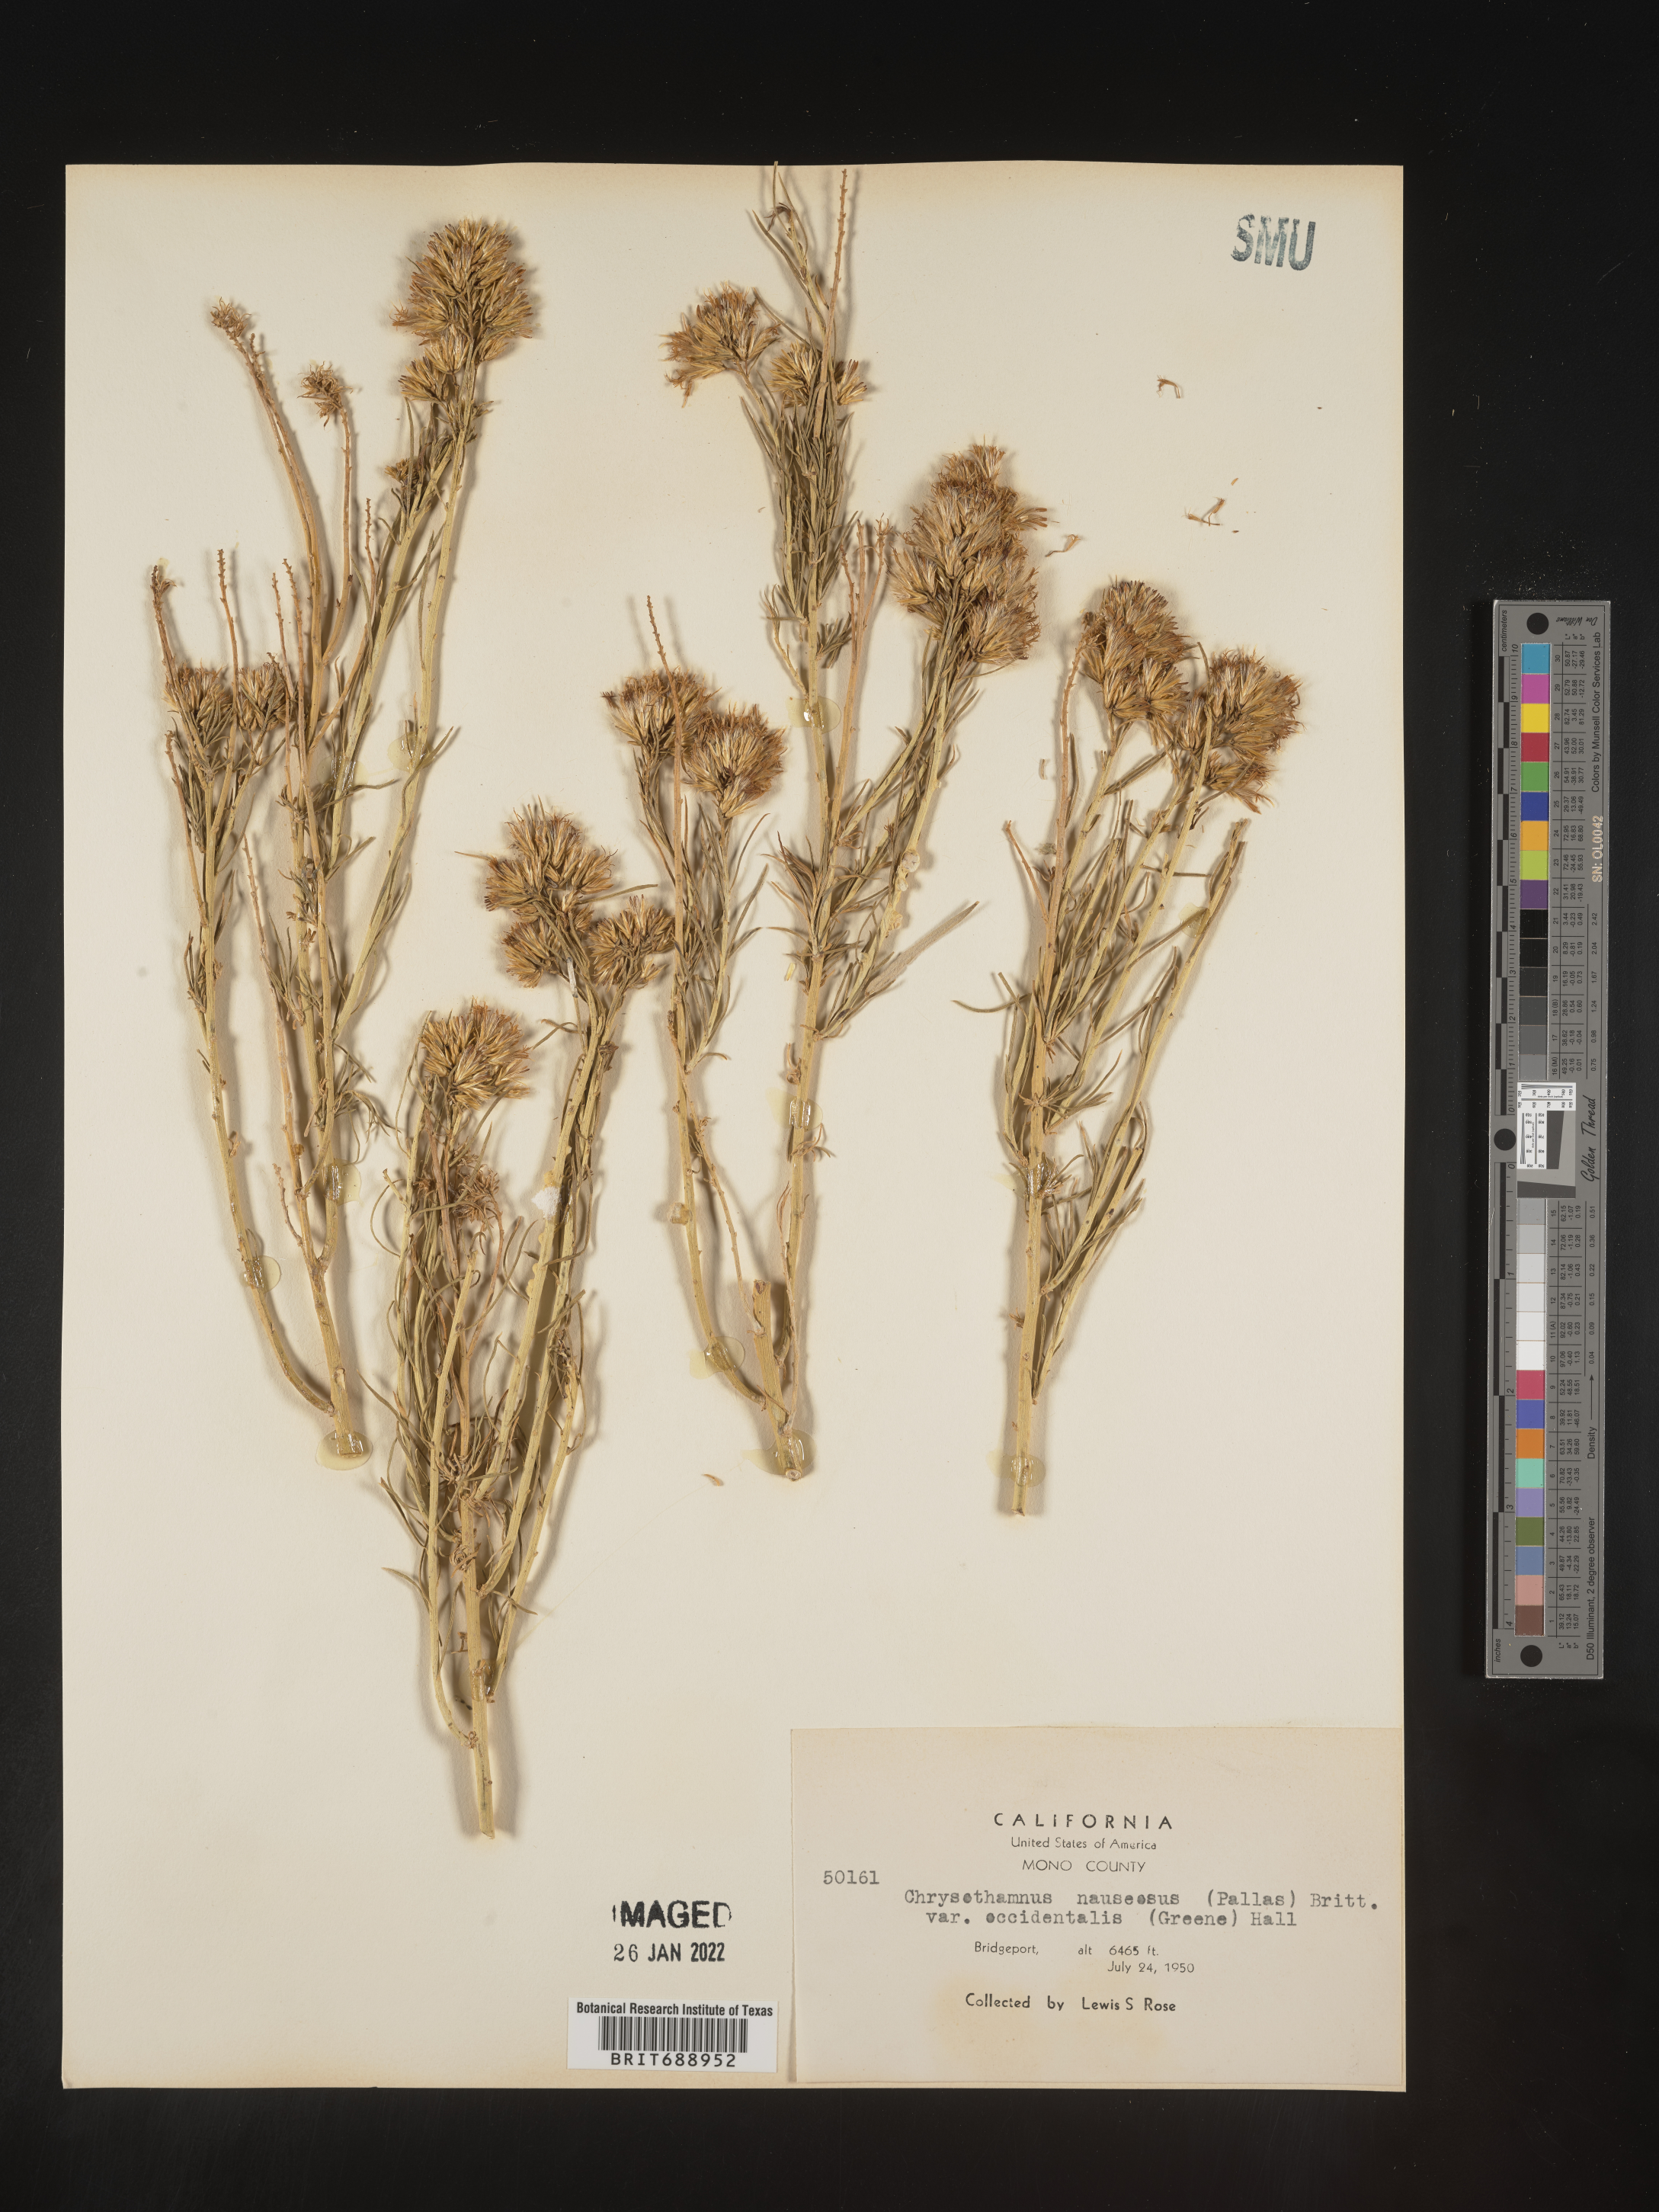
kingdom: Plantae
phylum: Tracheophyta
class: Magnoliopsida
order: Asterales
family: Asteraceae
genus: Ericameria
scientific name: Ericameria nauseosa
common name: Rubber rabbitbrush
